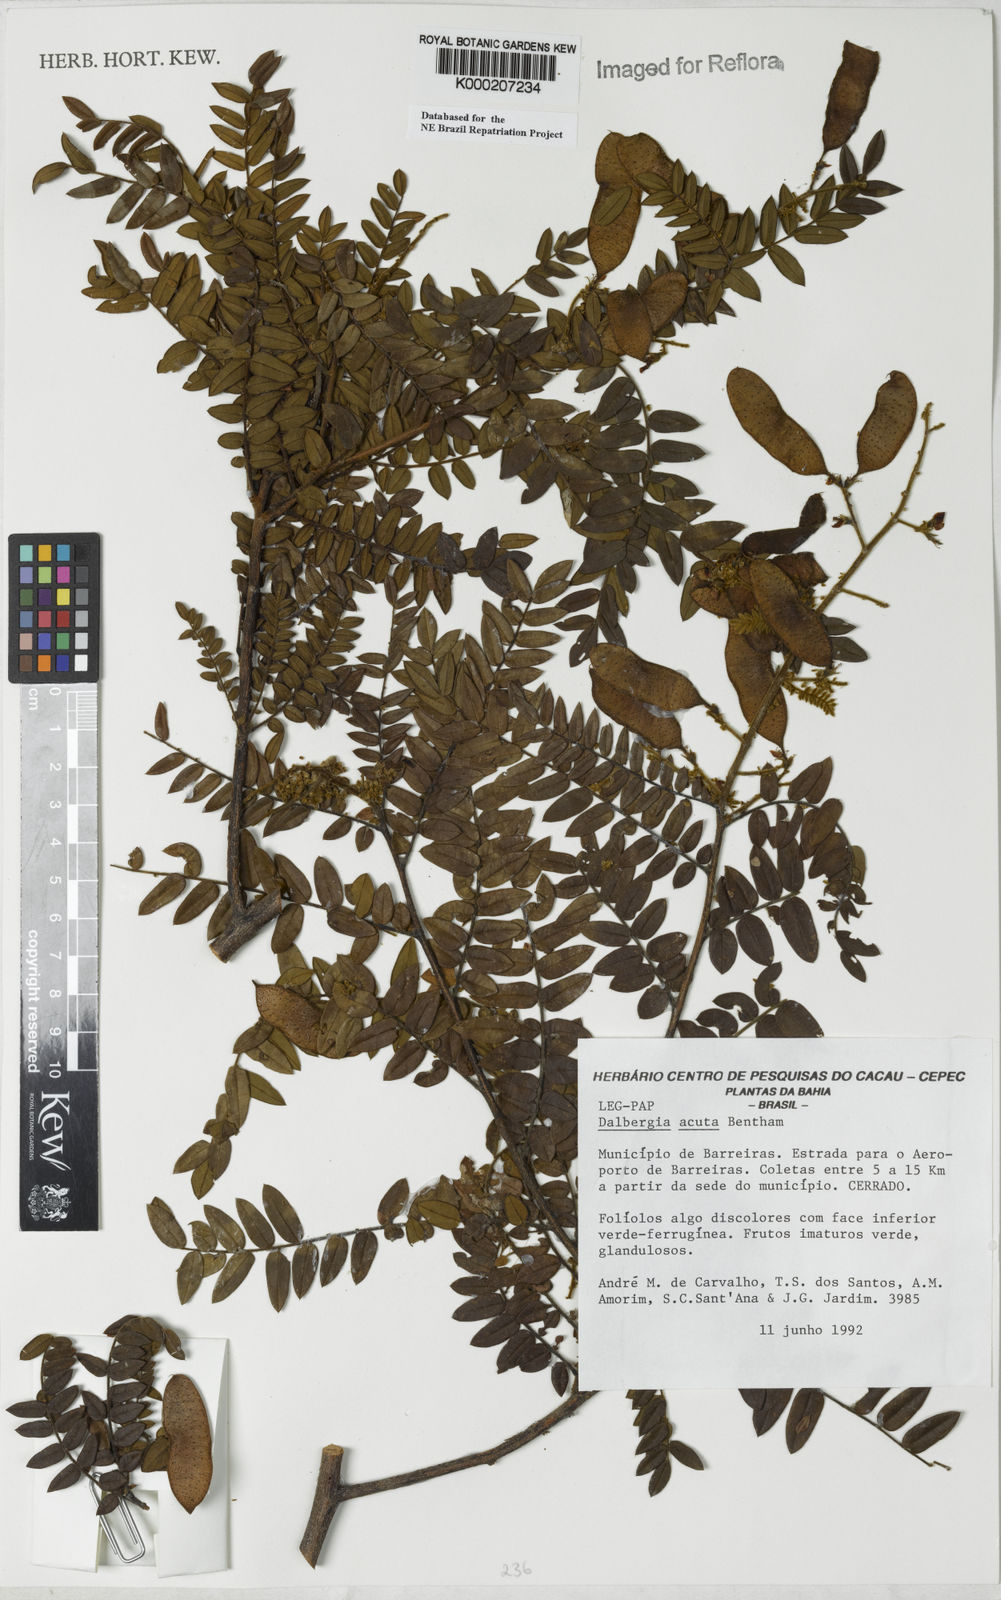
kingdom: Plantae
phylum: Tracheophyta
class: Magnoliopsida
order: Fabales
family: Fabaceae
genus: Dalbergia
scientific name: Dalbergia acuta
